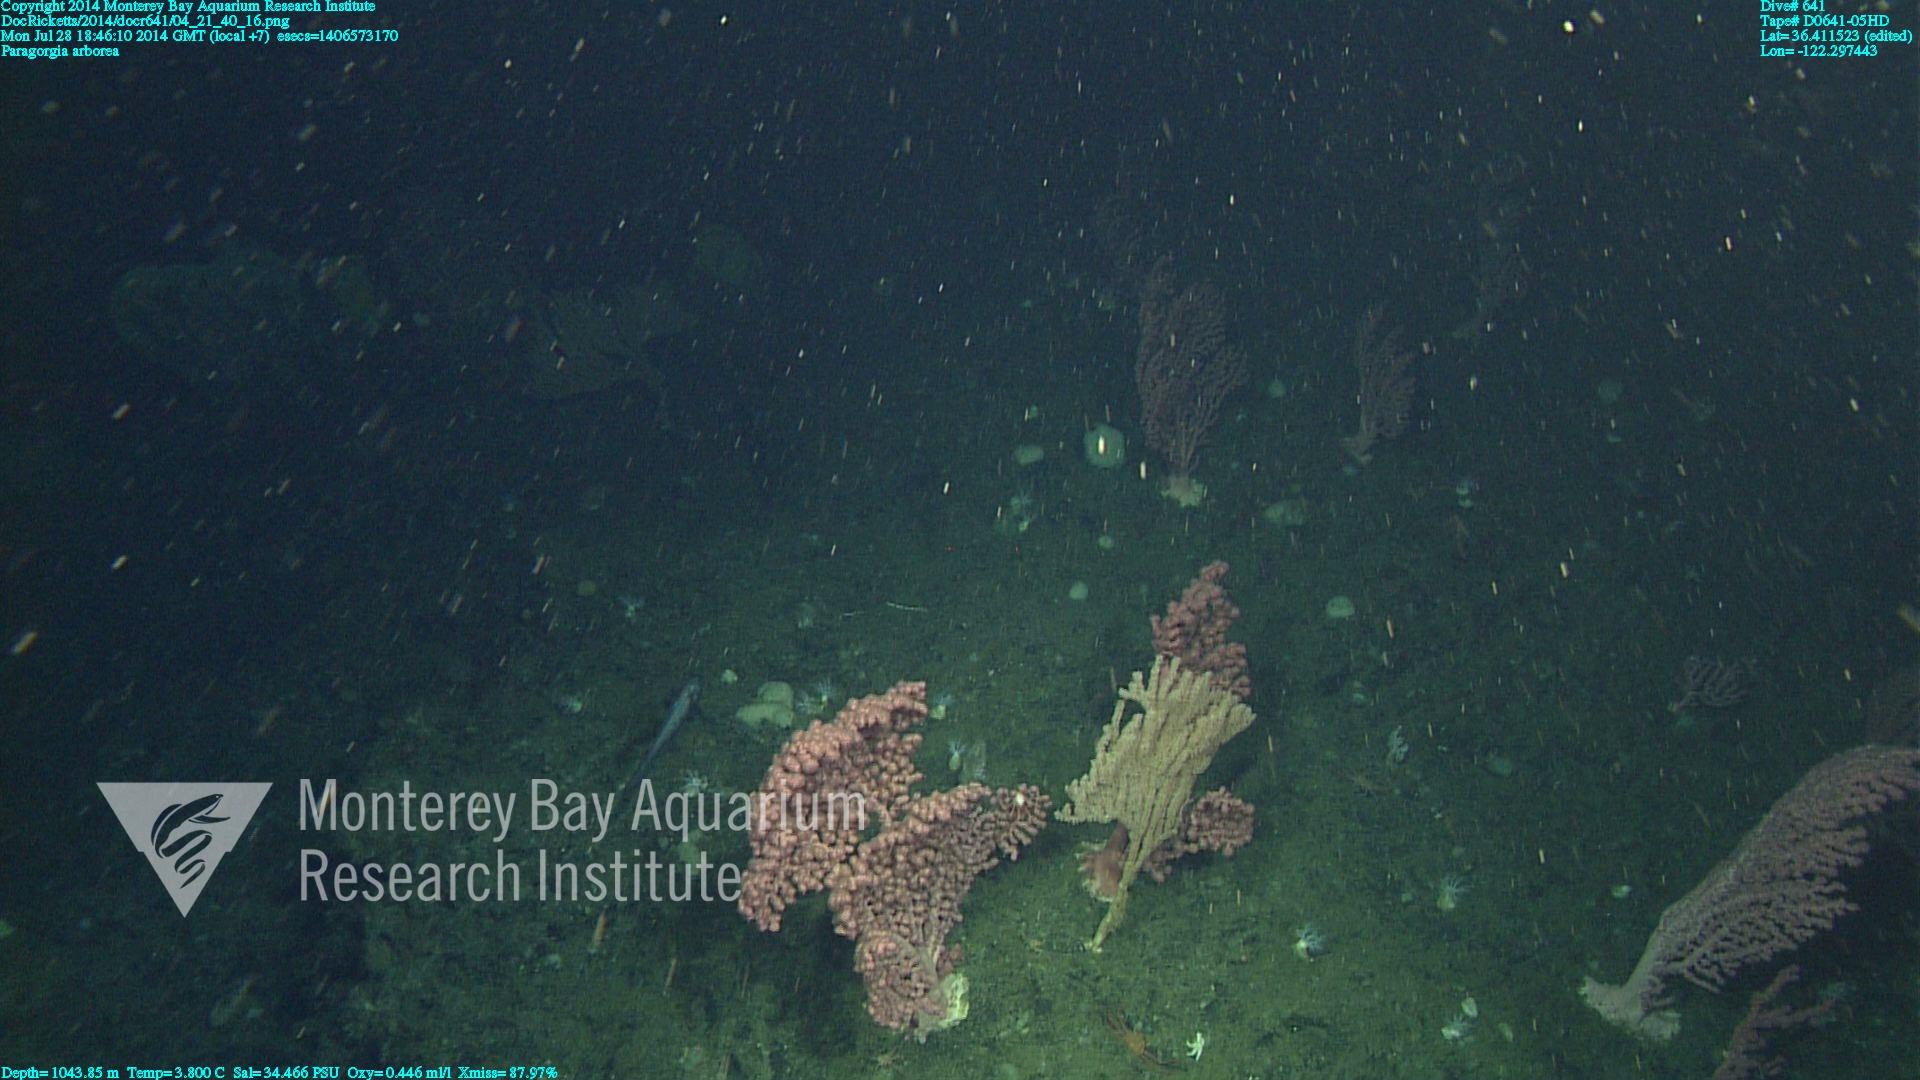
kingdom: Animalia
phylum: Cnidaria
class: Anthozoa
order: Scleralcyonacea
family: Coralliidae
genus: Paragorgia
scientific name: Paragorgia arborea
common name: Bubble gum coral
